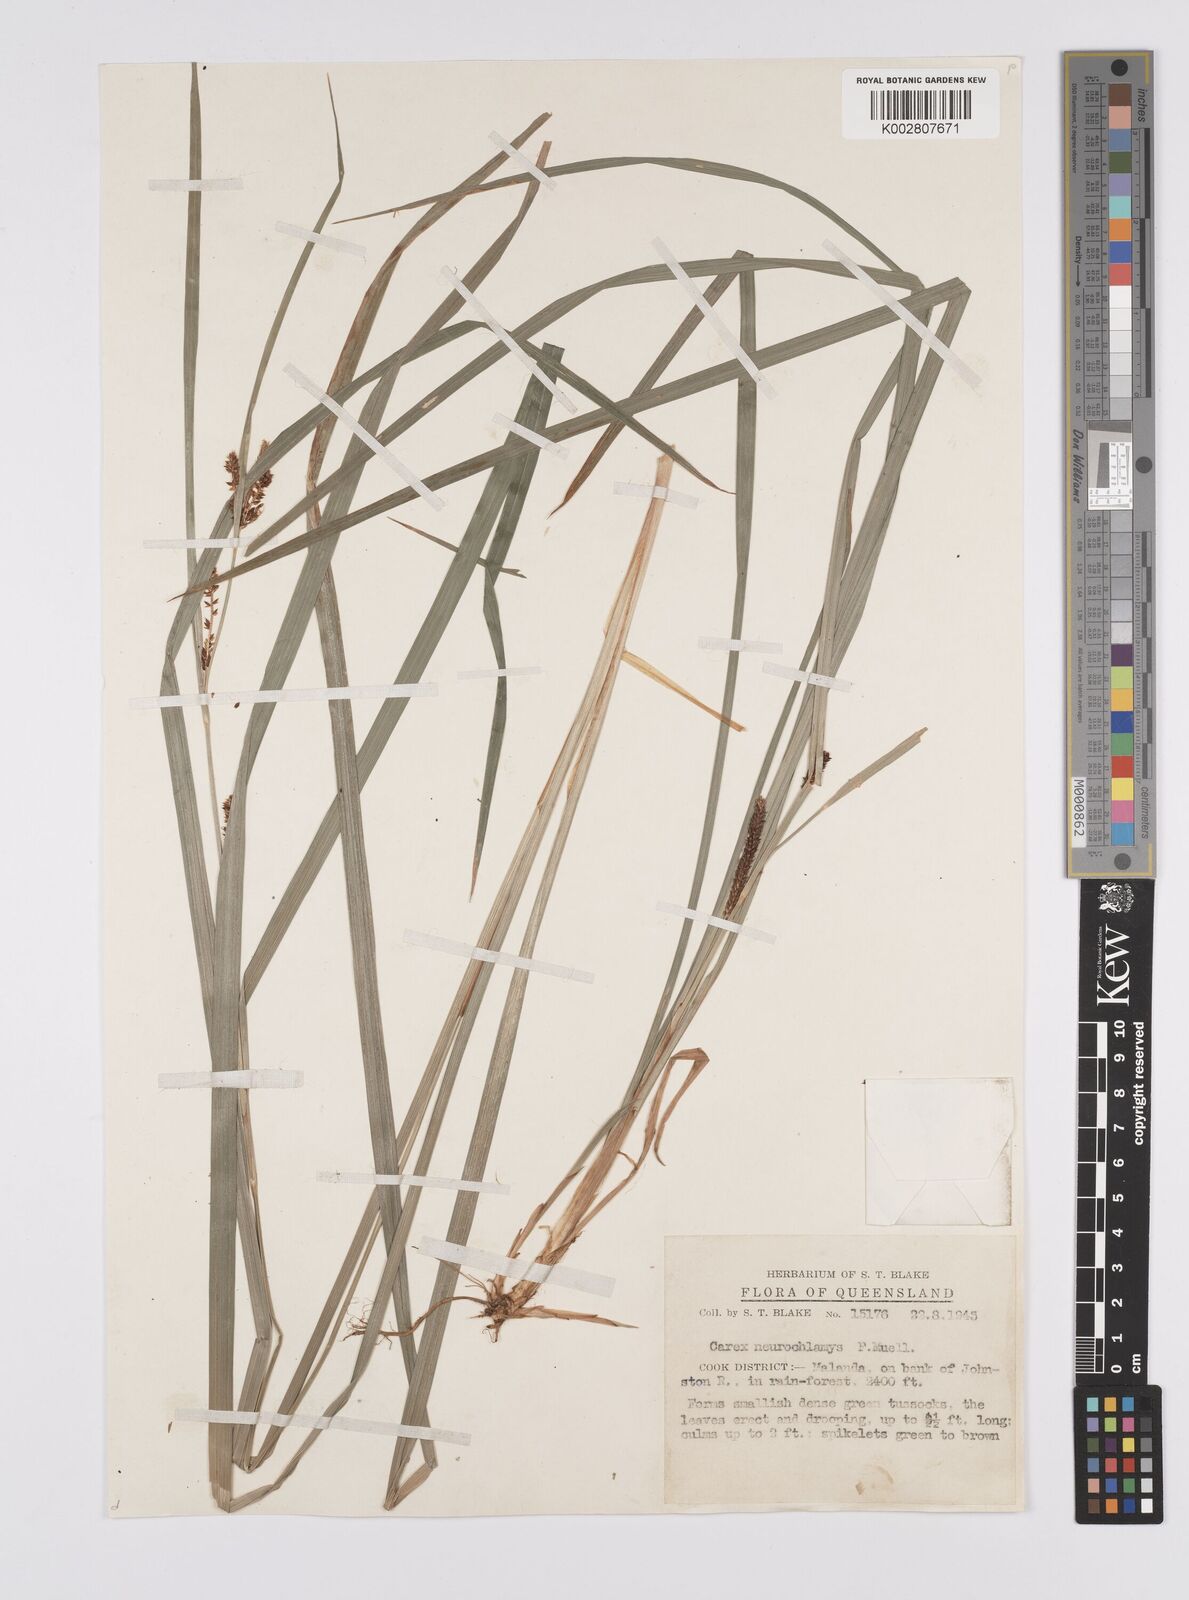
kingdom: Plantae
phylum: Tracheophyta
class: Liliopsida
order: Poales
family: Cyperaceae
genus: Carex
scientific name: Carex maculata
